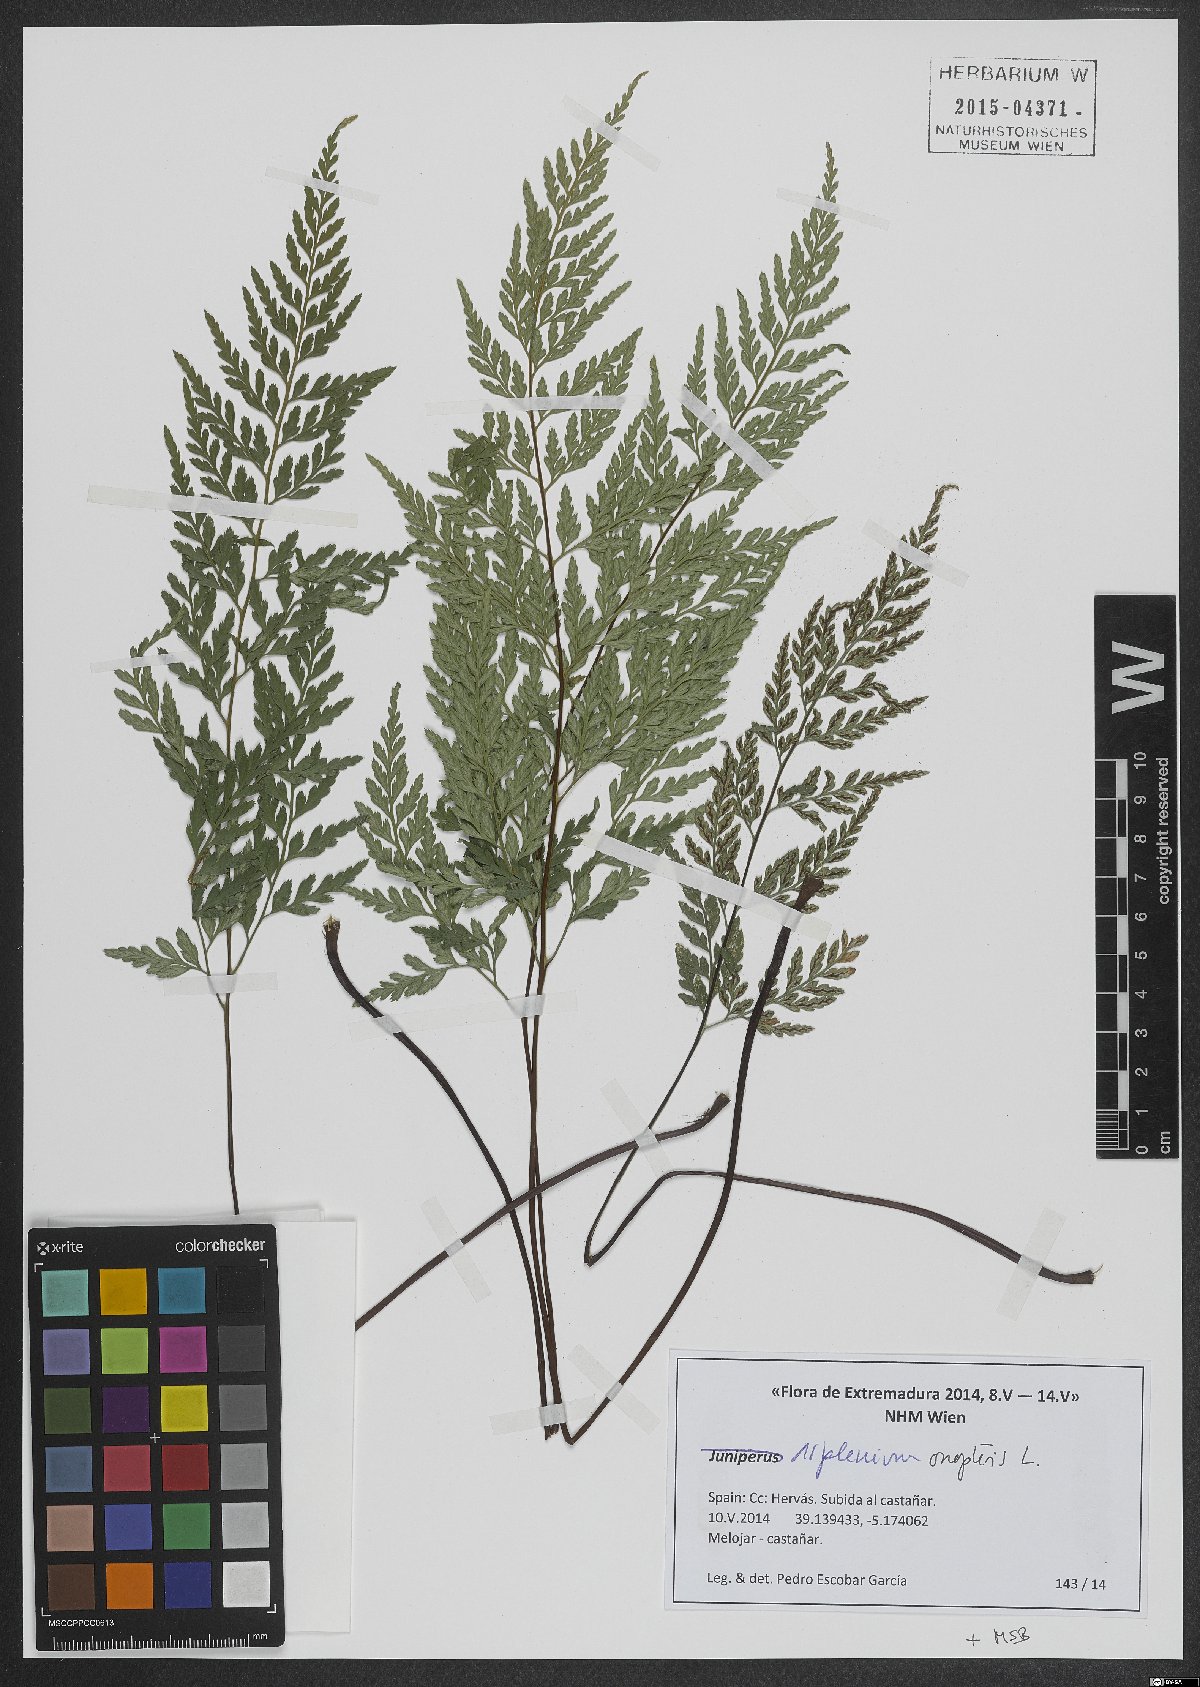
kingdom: Plantae
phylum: Tracheophyta
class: Polypodiopsida
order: Polypodiales
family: Aspleniaceae
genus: Asplenium
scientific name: Asplenium onopteris
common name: Irish spleenwort
